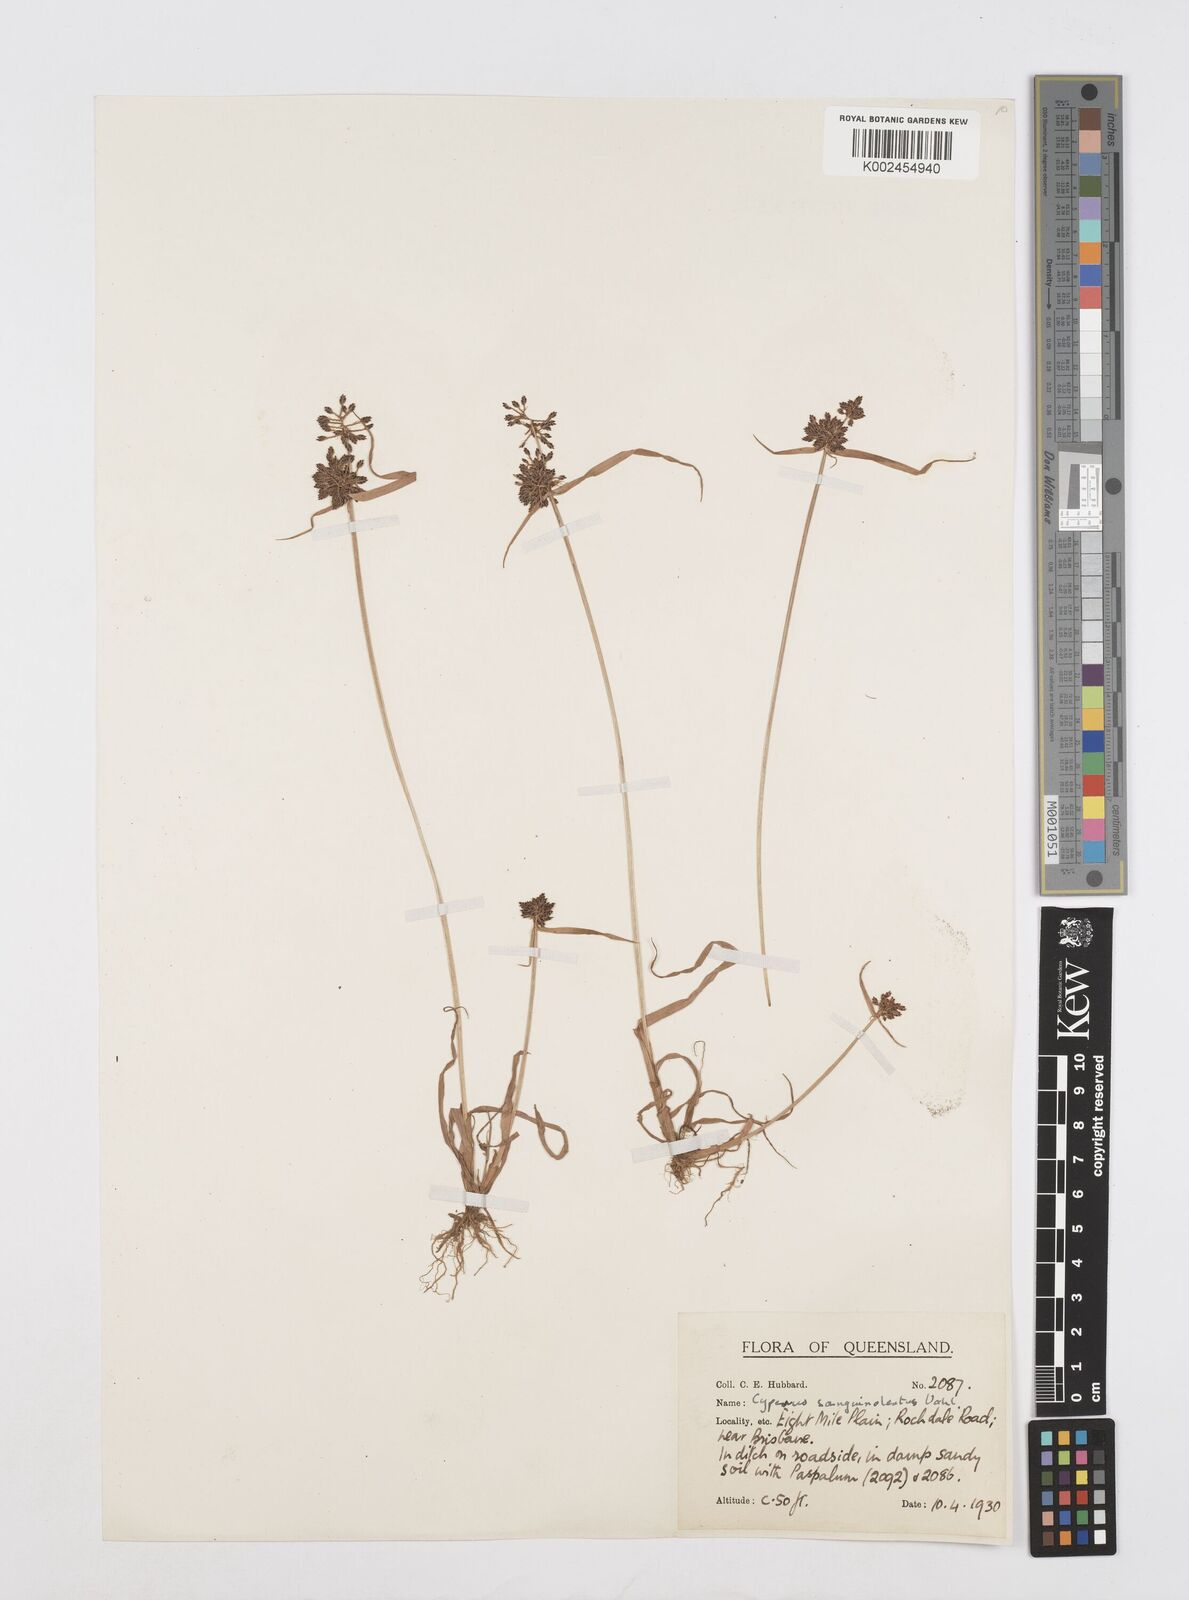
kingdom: Plantae
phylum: Tracheophyta
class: Liliopsida
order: Poales
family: Cyperaceae
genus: Cyperus
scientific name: Cyperus sanguinolentus
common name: Purpleglume flatsedge
